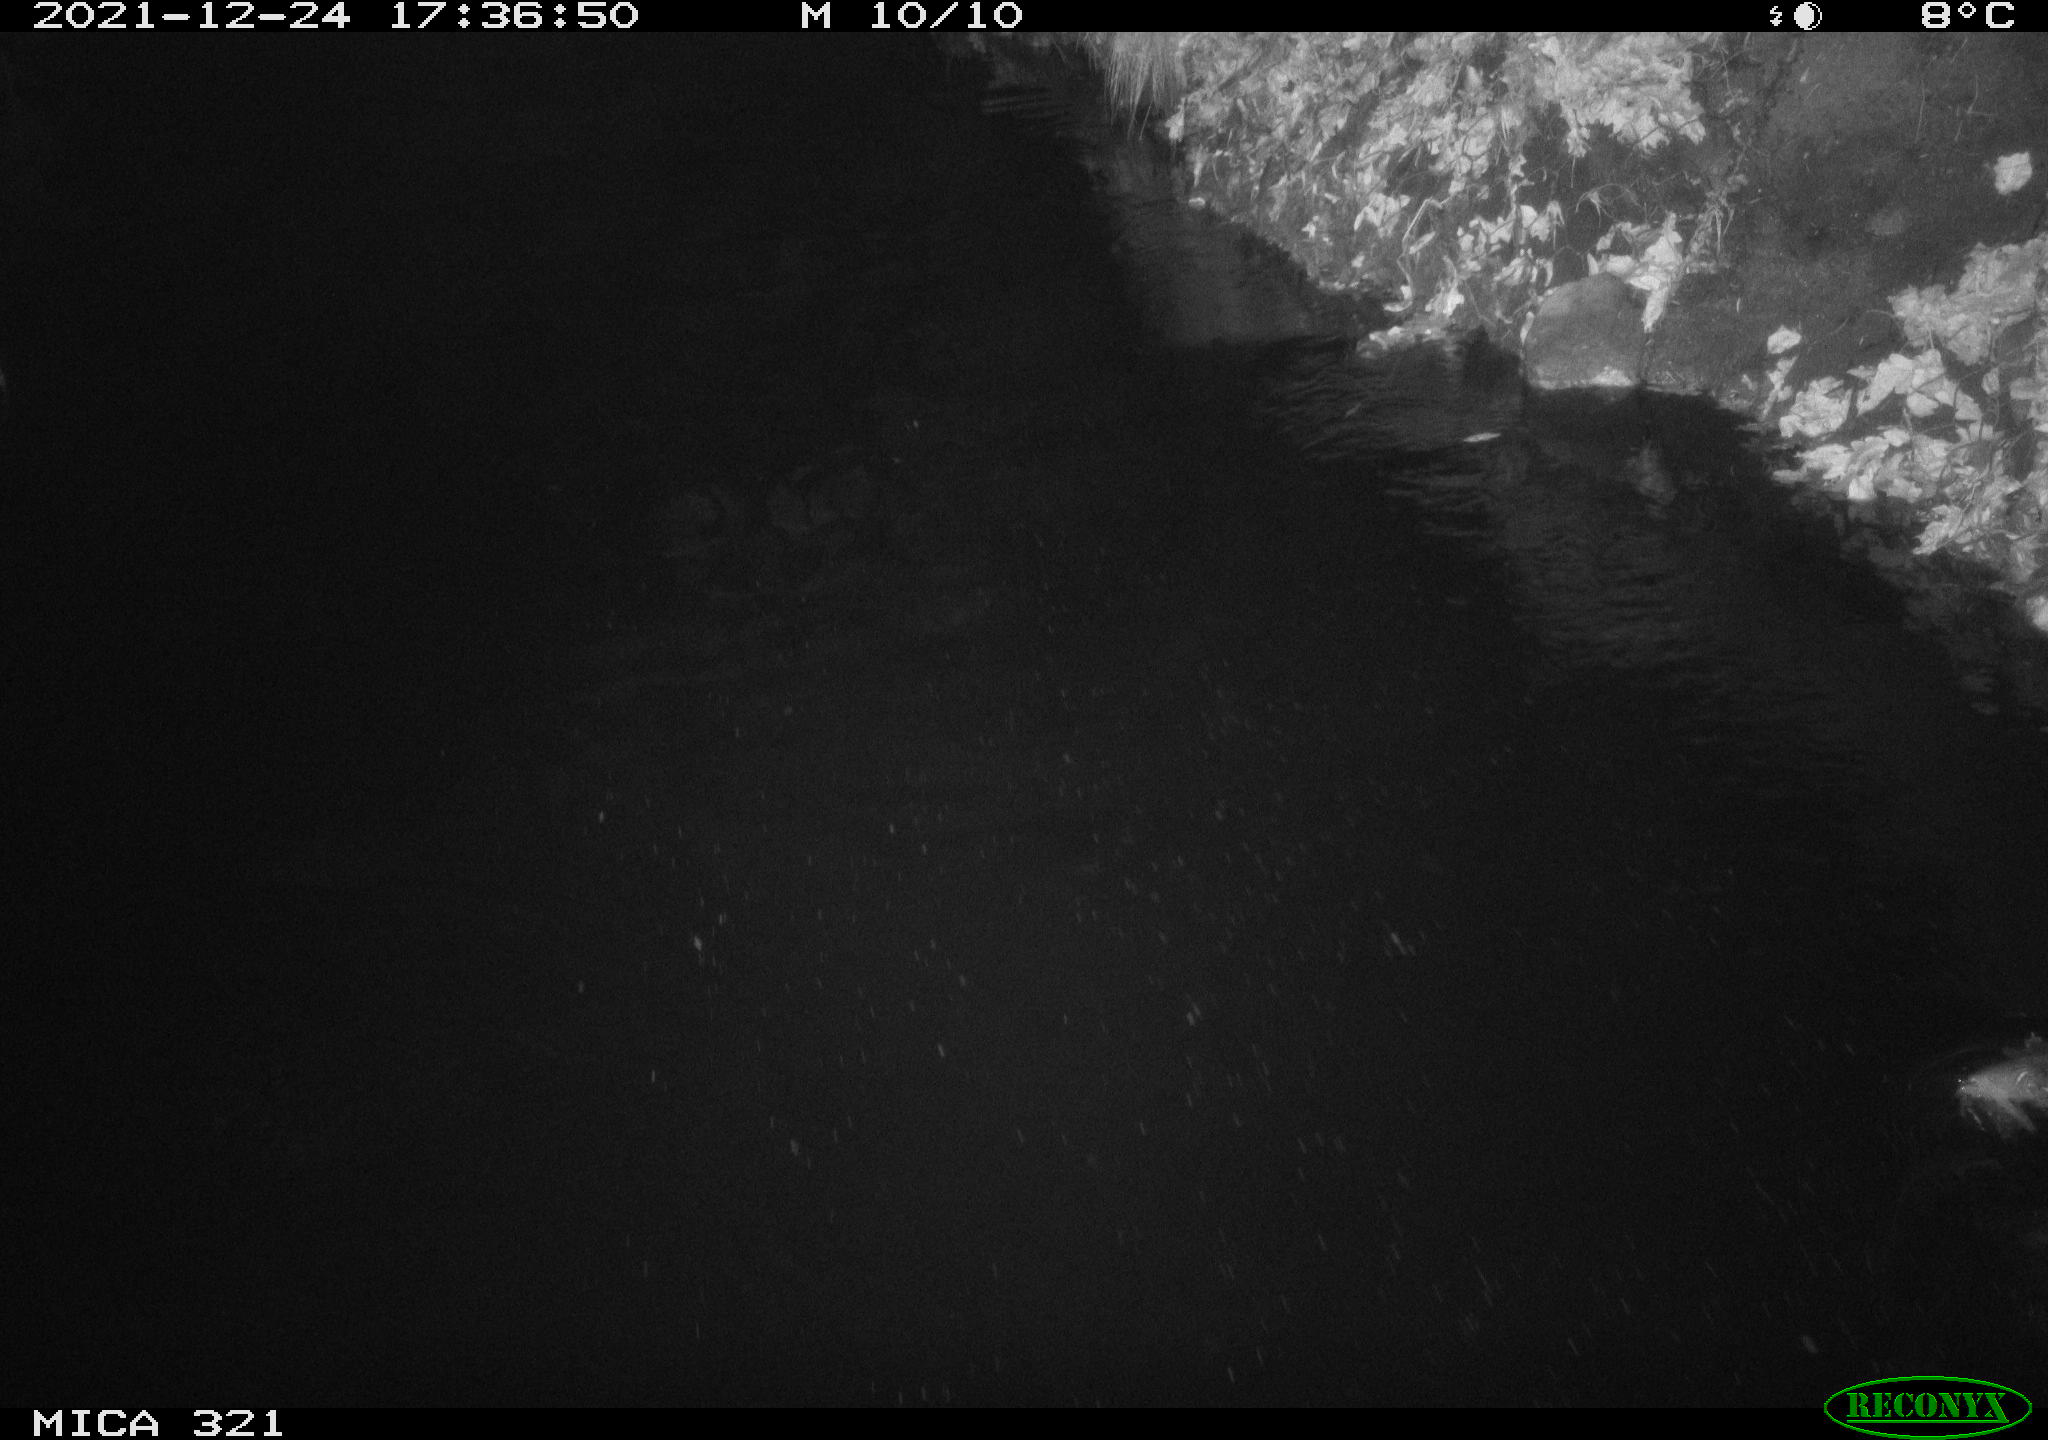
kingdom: Animalia
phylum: Chordata
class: Aves
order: Anseriformes
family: Anatidae
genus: Anas
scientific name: Anas platyrhynchos
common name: Mallard
